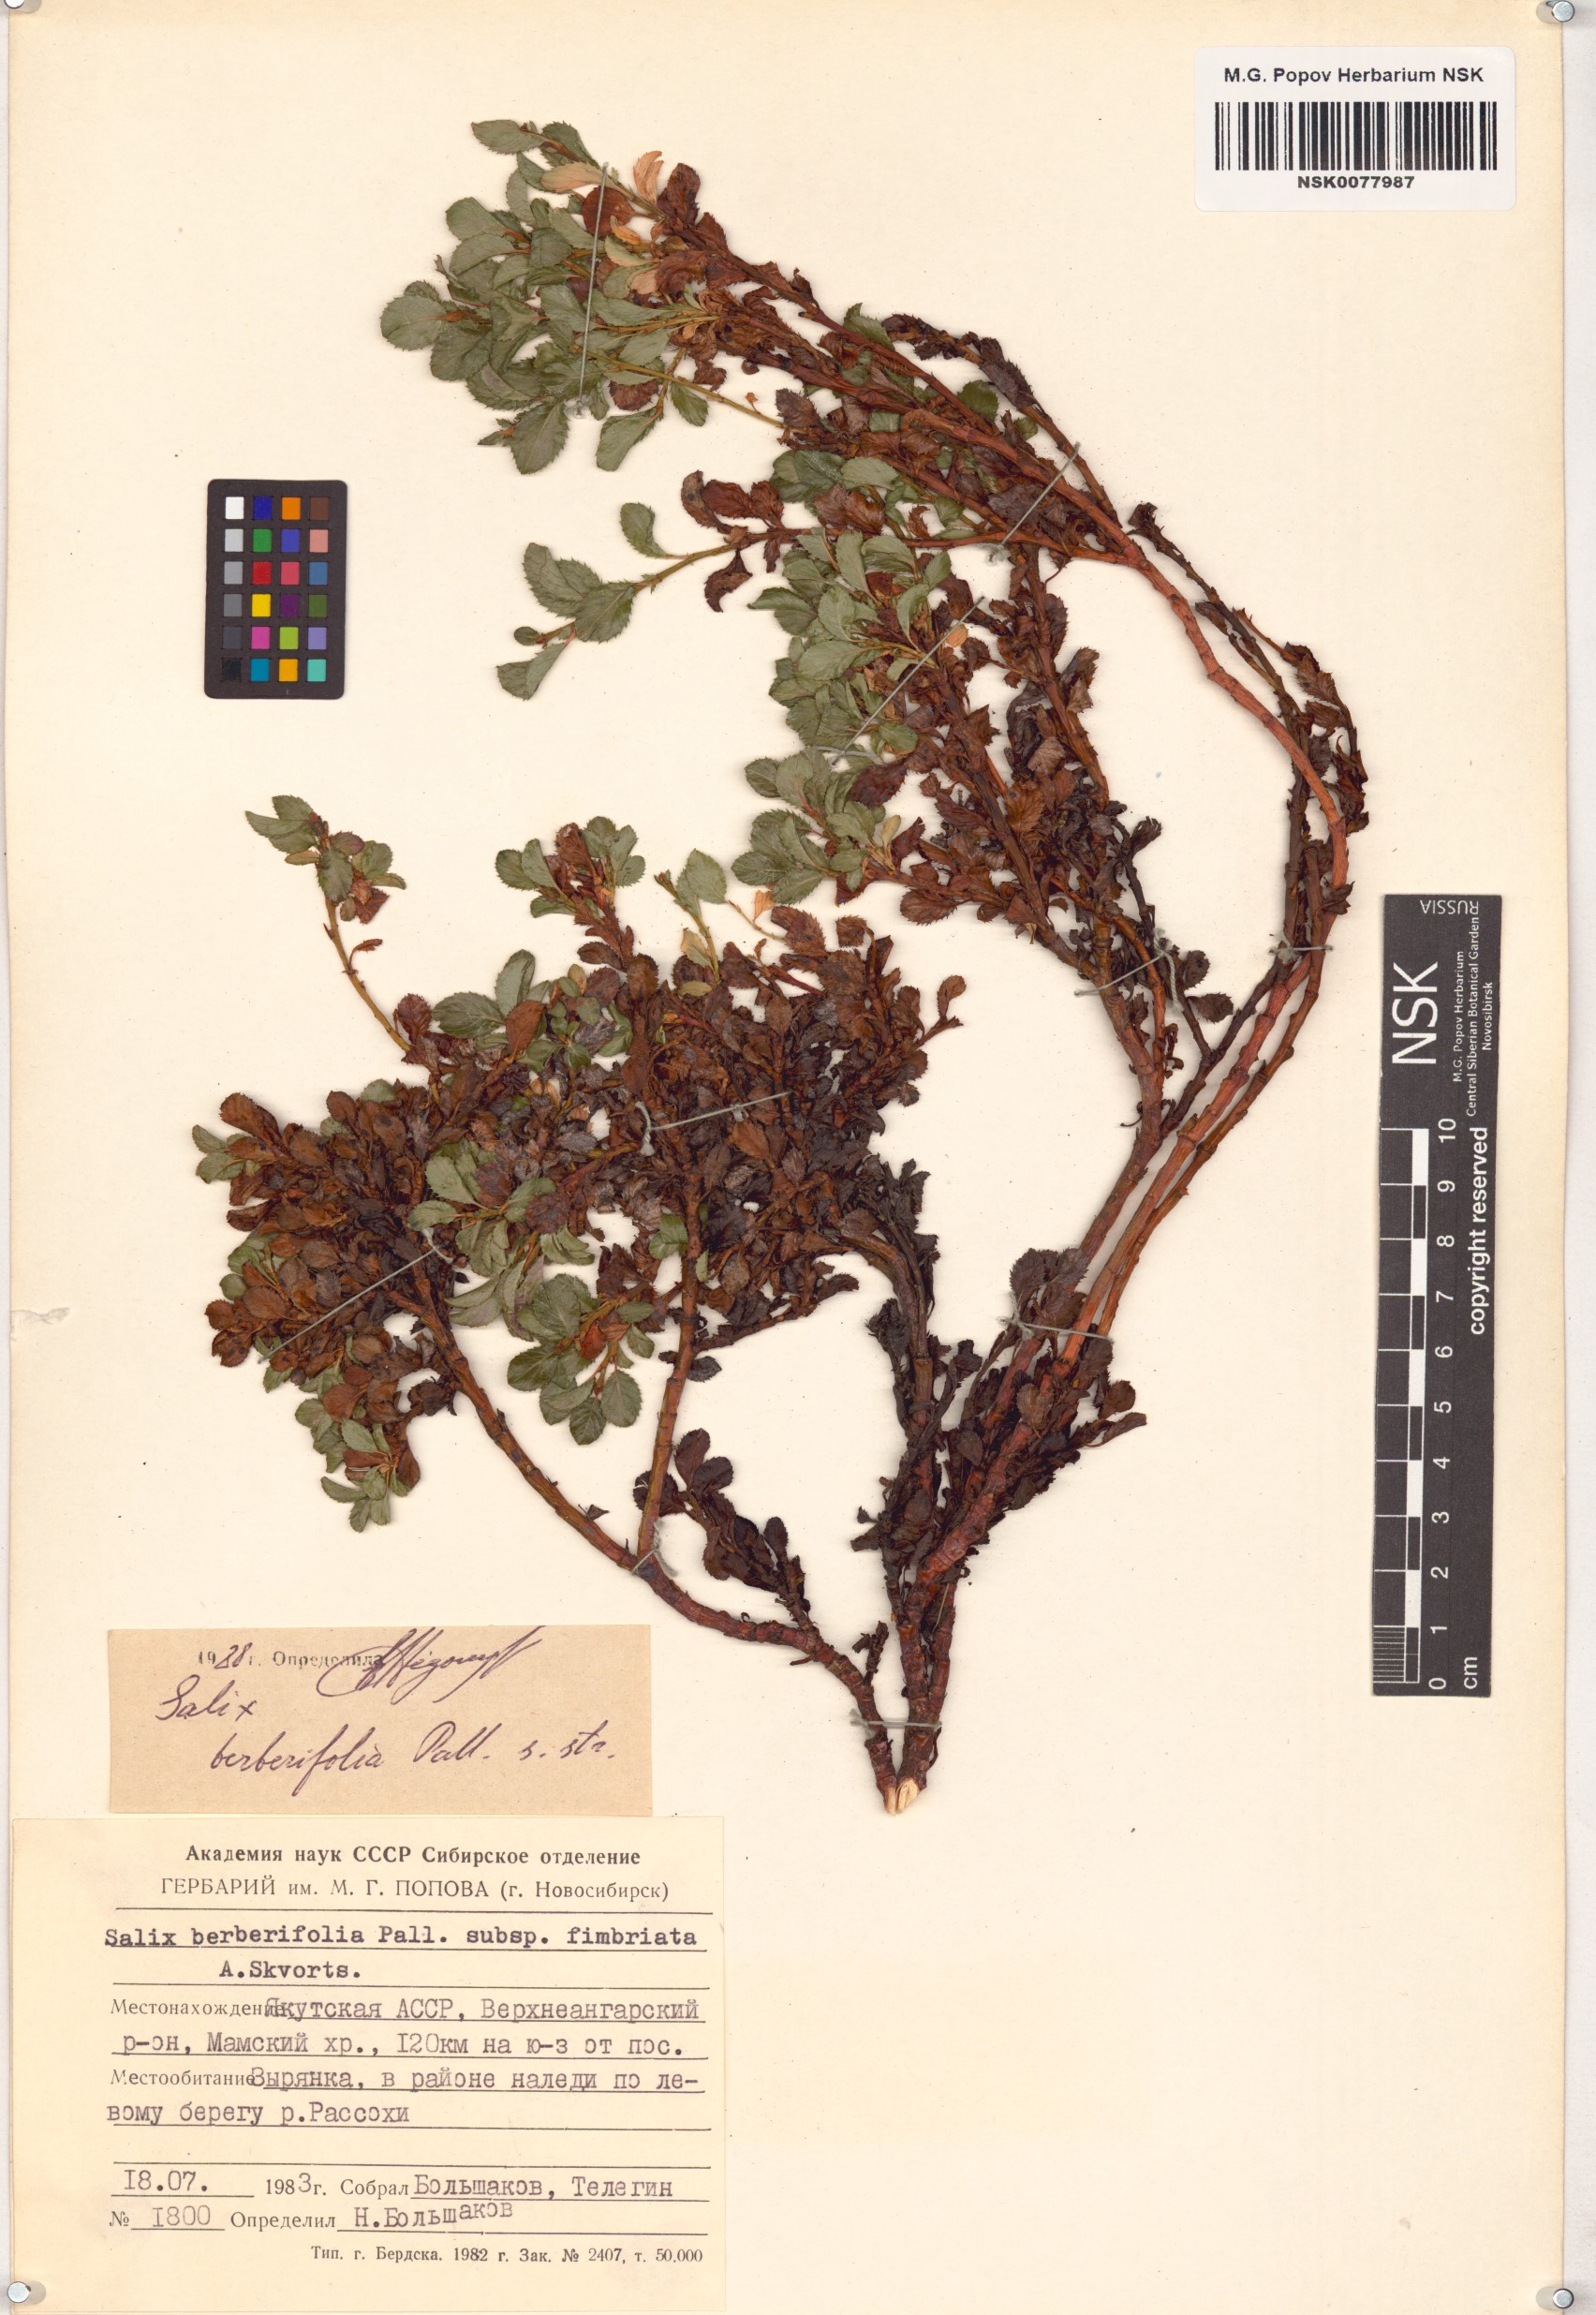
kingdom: Plantae
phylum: Tracheophyta
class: Magnoliopsida
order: Malpighiales
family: Salicaceae
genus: Salix
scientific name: Salix berberifolia
